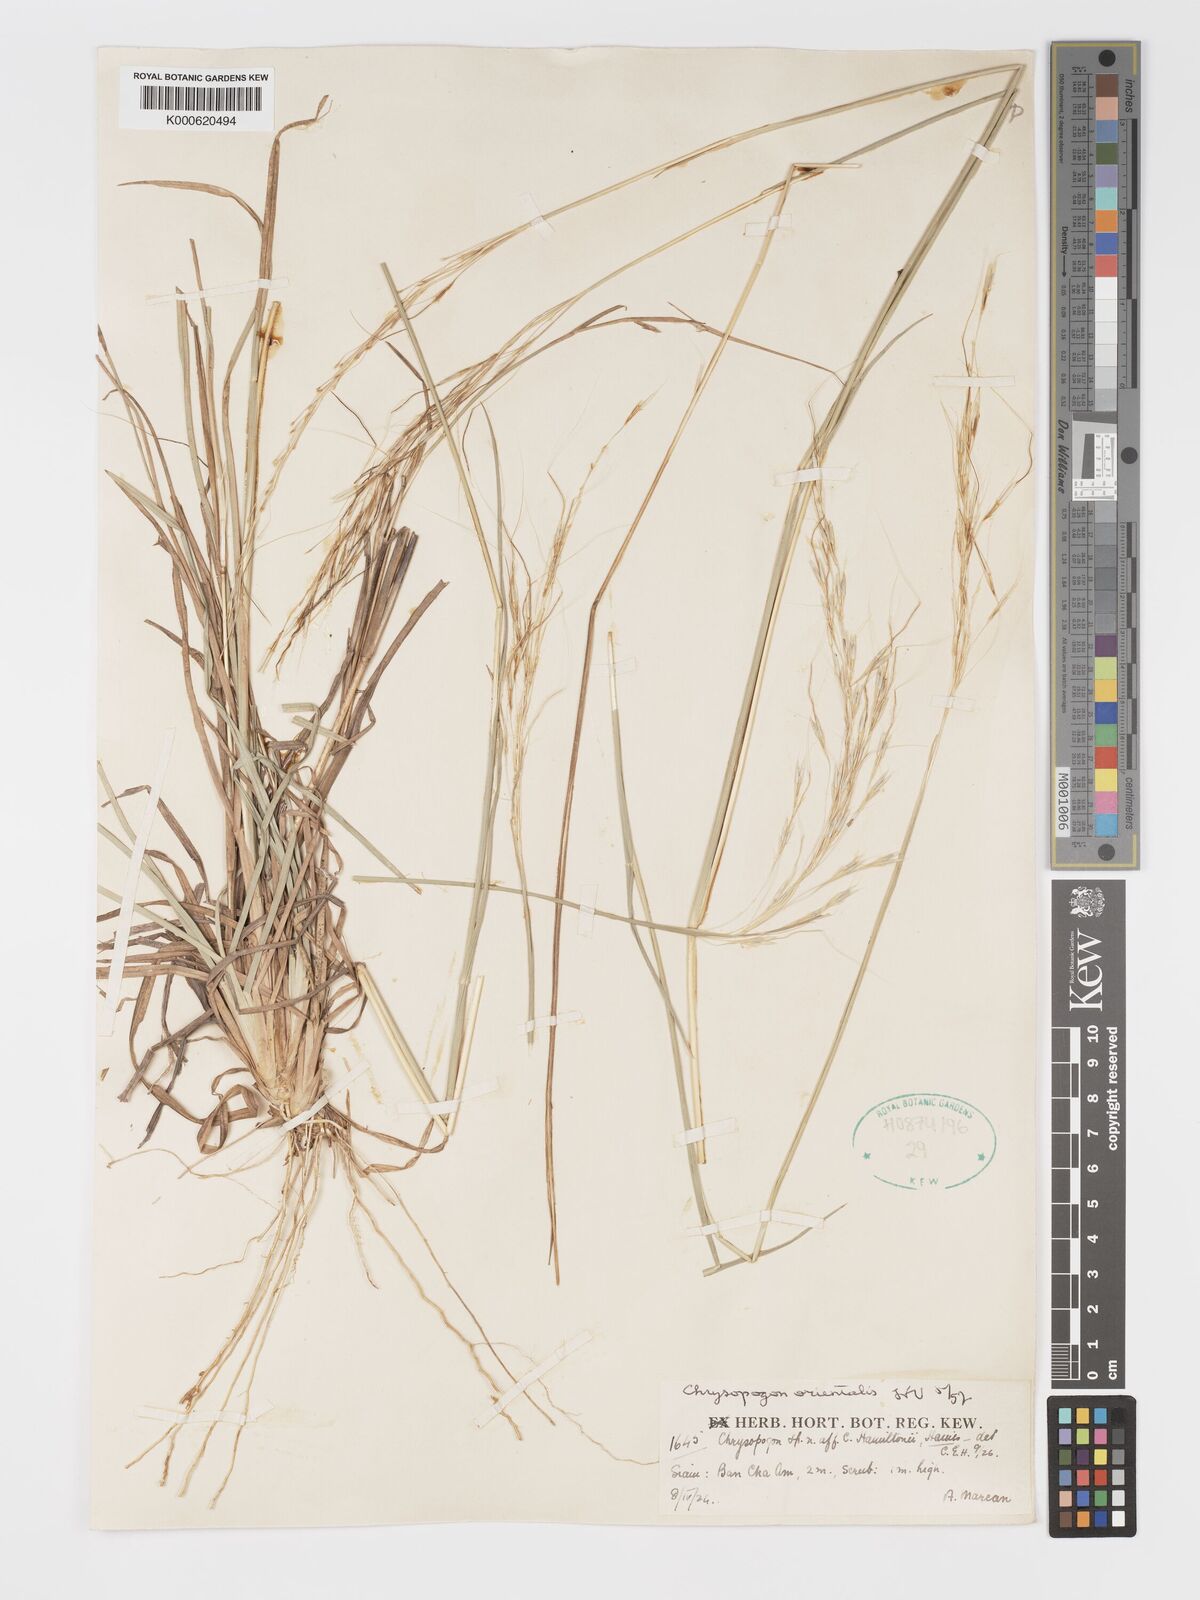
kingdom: Plantae
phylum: Tracheophyta
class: Liliopsida
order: Poales
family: Poaceae
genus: Chrysopogon
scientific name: Chrysopogon orientalis
